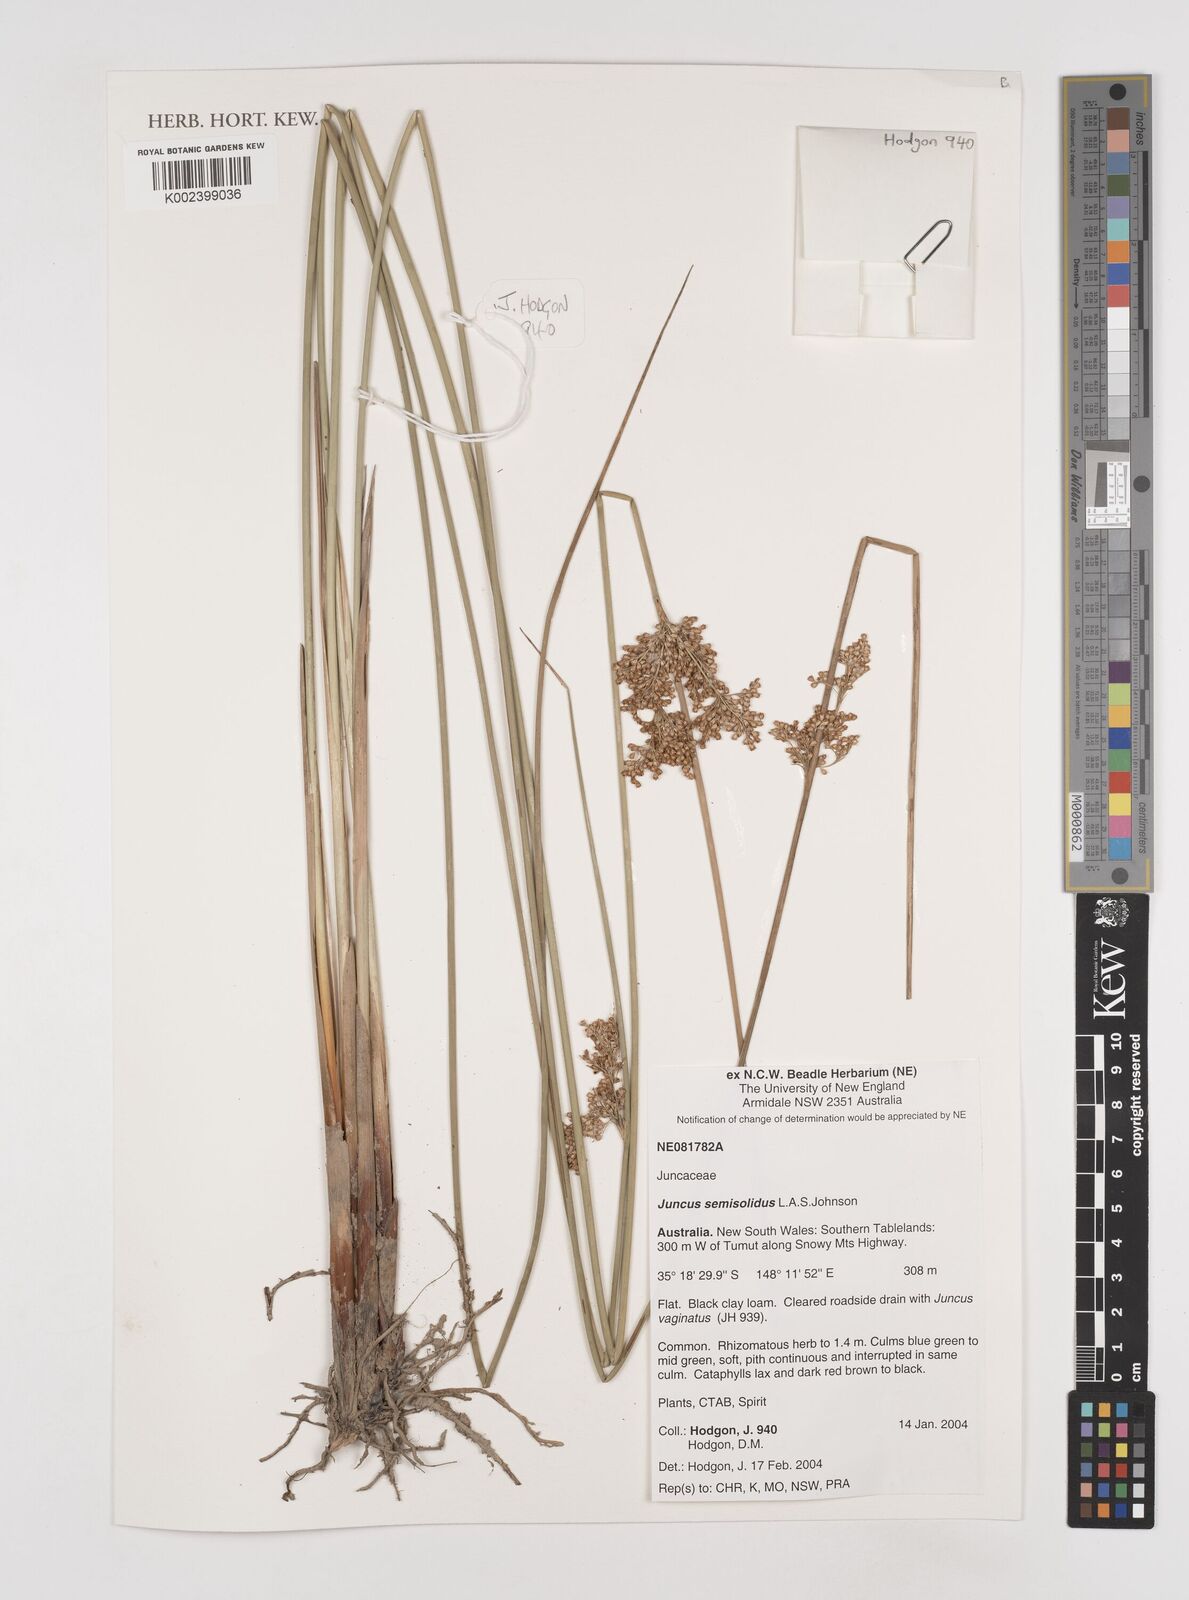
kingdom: Plantae
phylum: Tracheophyta
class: Liliopsida
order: Poales
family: Juncaceae
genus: Juncus
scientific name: Juncus semisolidus
